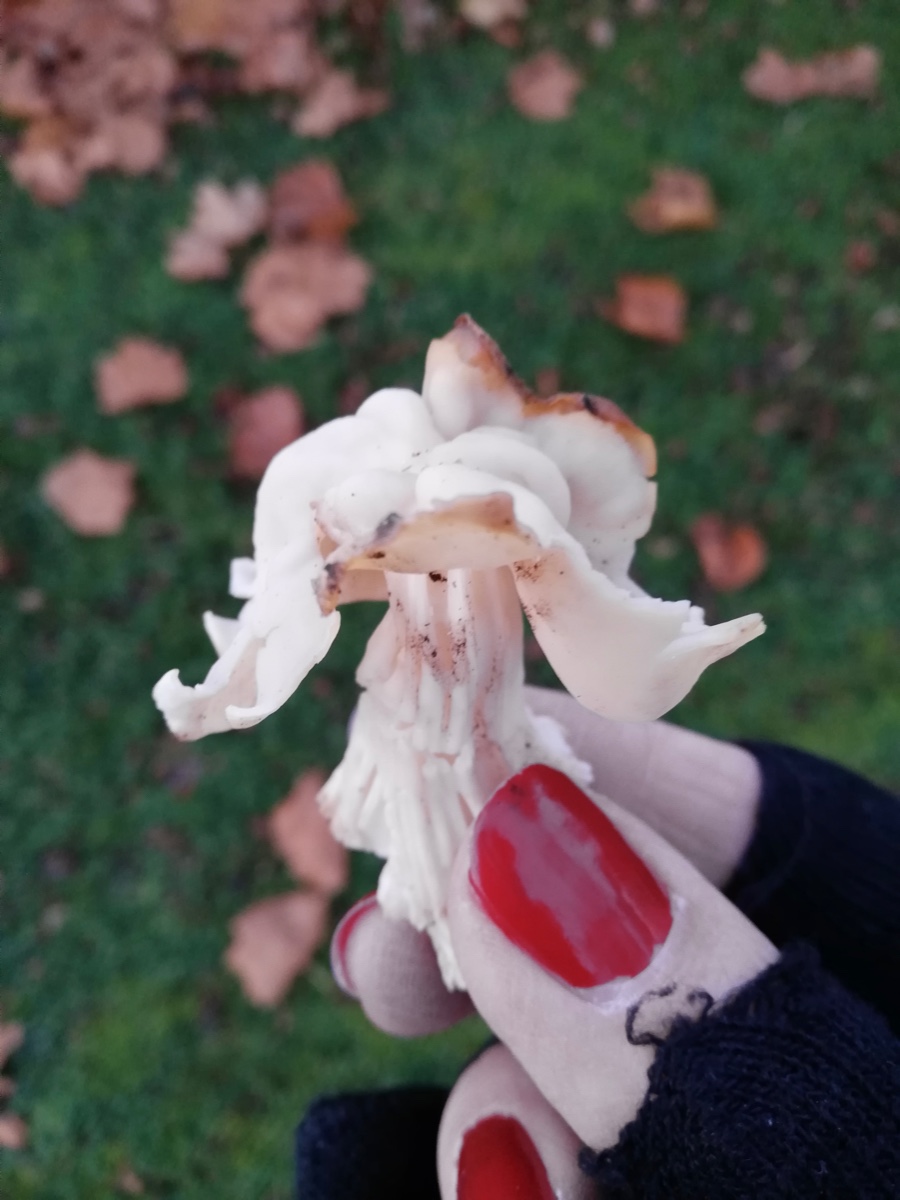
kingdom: Fungi
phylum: Ascomycota
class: Pezizomycetes
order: Pezizales
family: Helvellaceae
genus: Helvella
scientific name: Helvella crispa
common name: kruset foldhat
